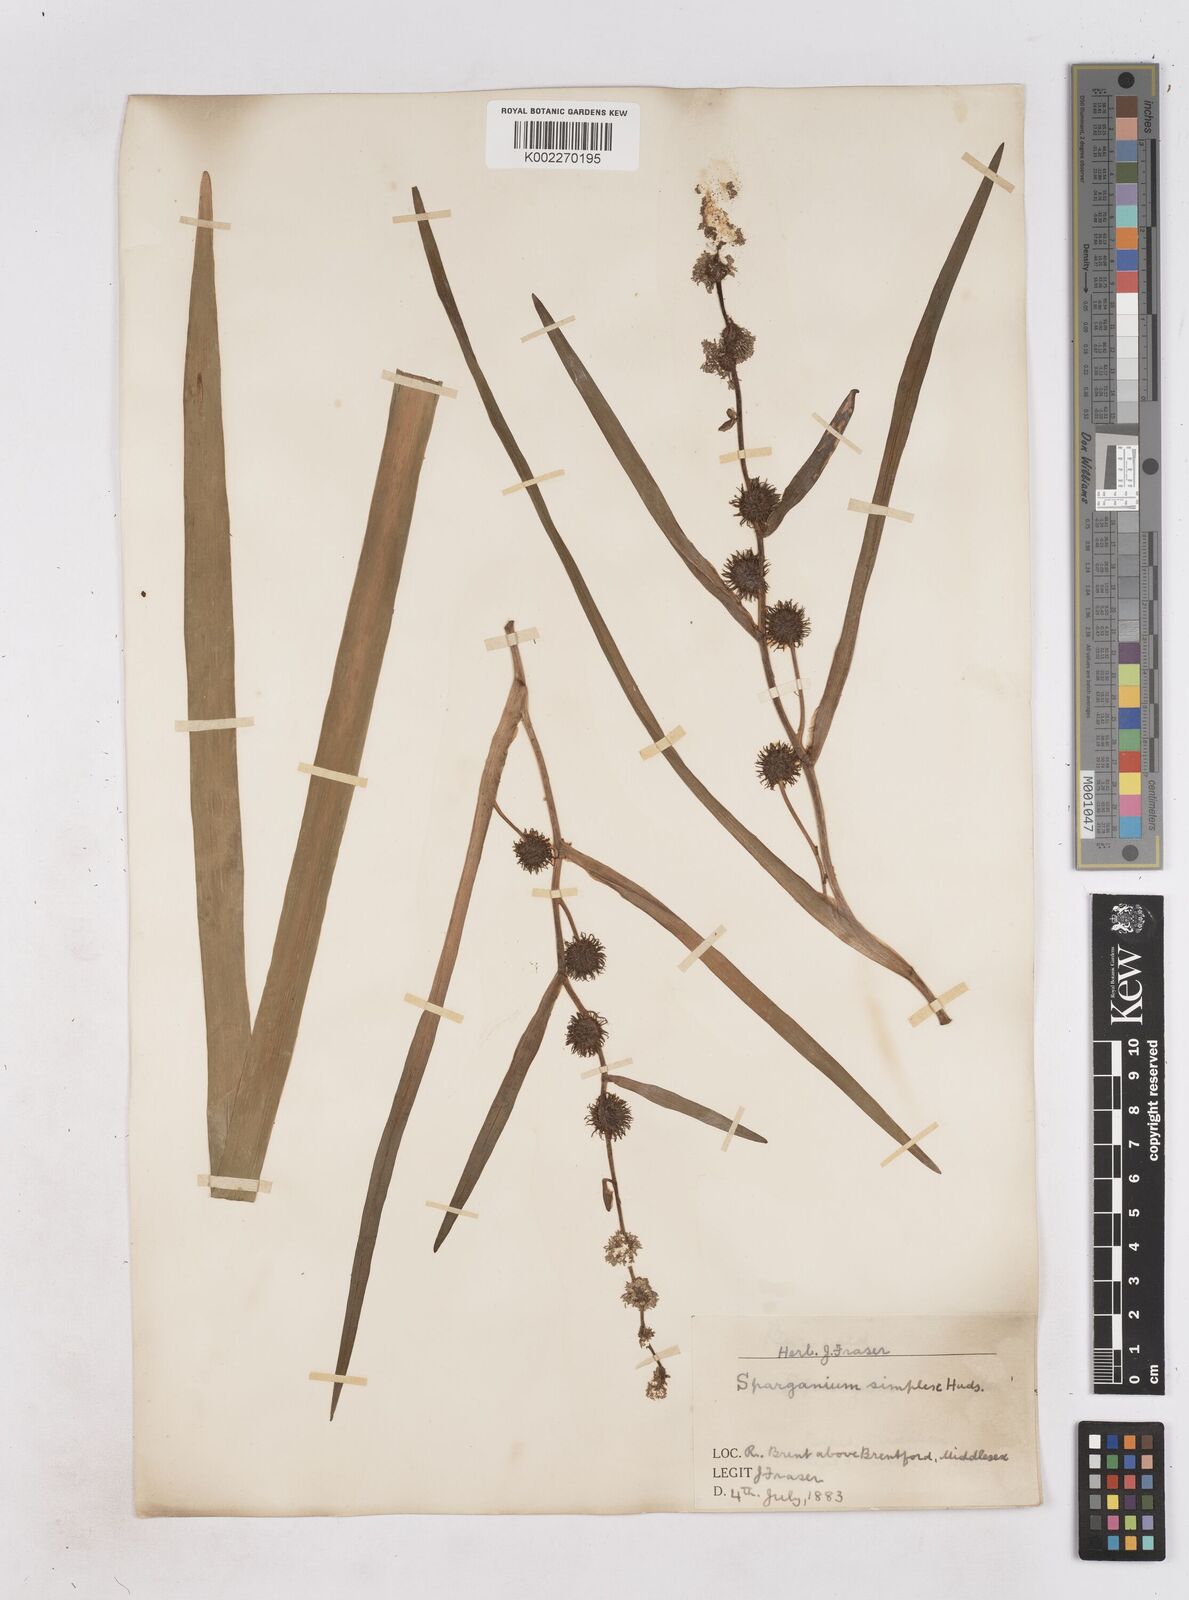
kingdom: Plantae
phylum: Tracheophyta
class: Liliopsida
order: Poales
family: Typhaceae
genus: Sparganium
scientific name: Sparganium emersum
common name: Unbranched bur-reed
